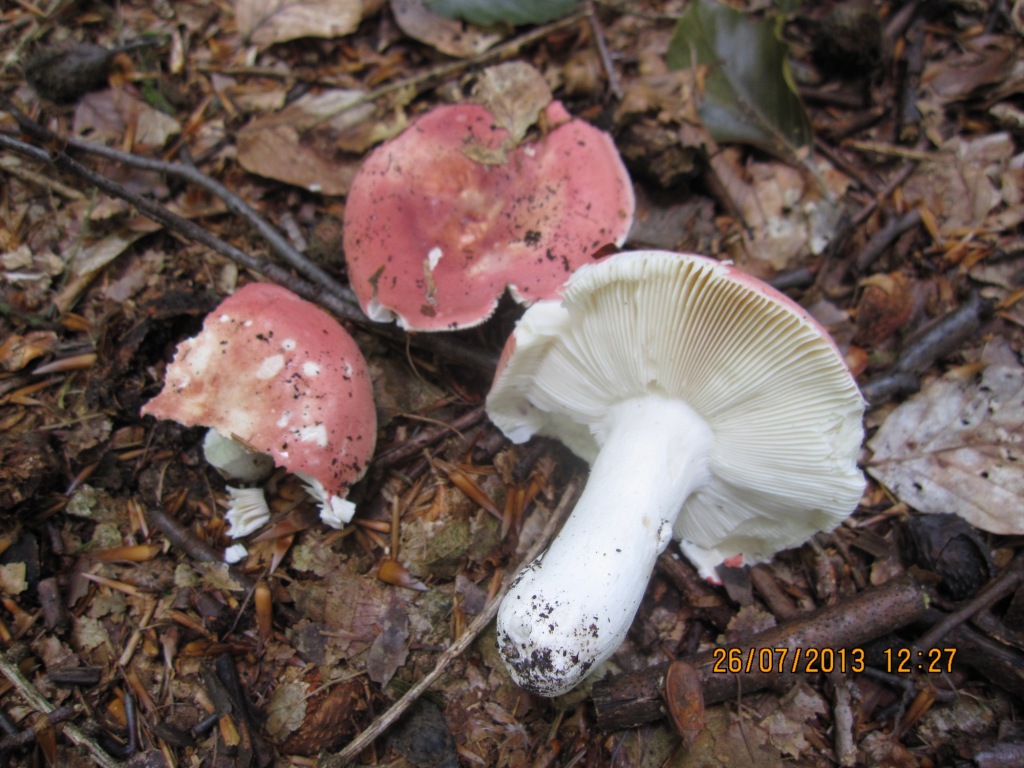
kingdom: Fungi
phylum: Basidiomycota
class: Agaricomycetes
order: Russulales
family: Russulaceae
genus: Russula
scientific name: Russula aurora
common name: rosa skørhat
